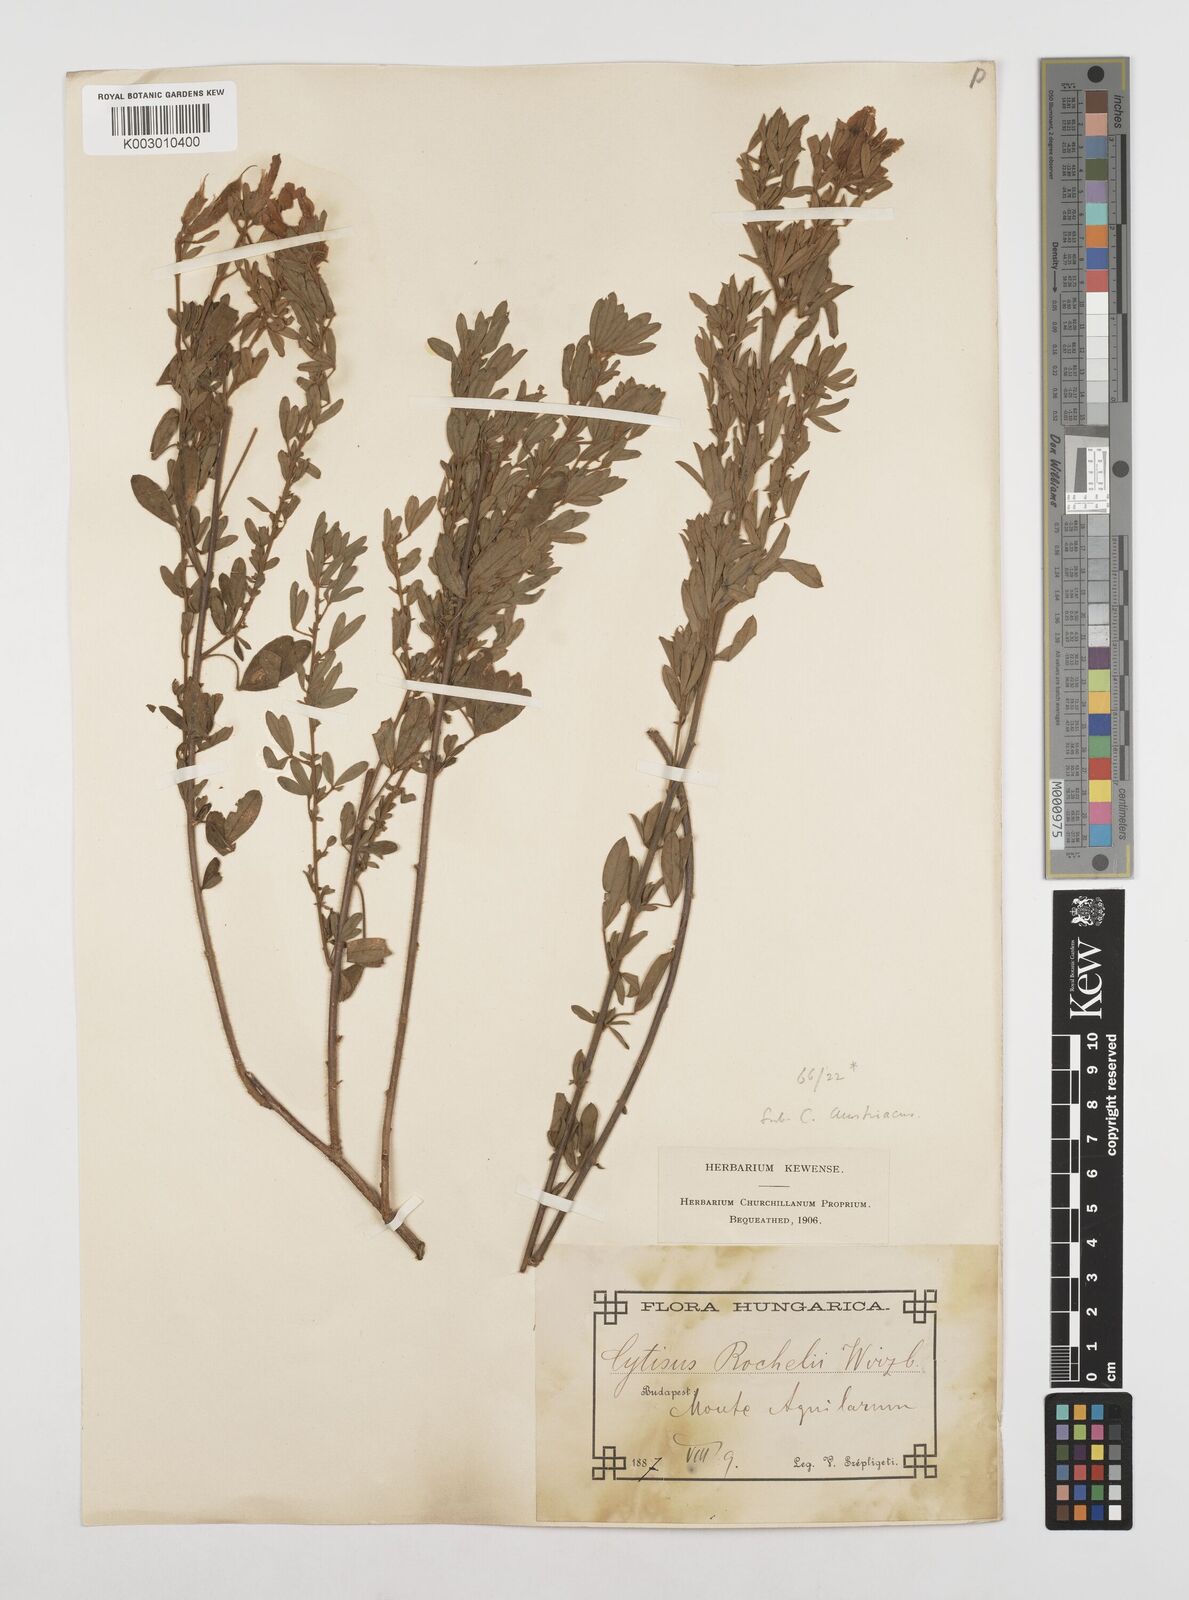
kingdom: Plantae
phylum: Tracheophyta
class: Magnoliopsida
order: Fabales
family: Fabaceae
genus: Chamaecytisus
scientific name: Chamaecytisus rochelii
